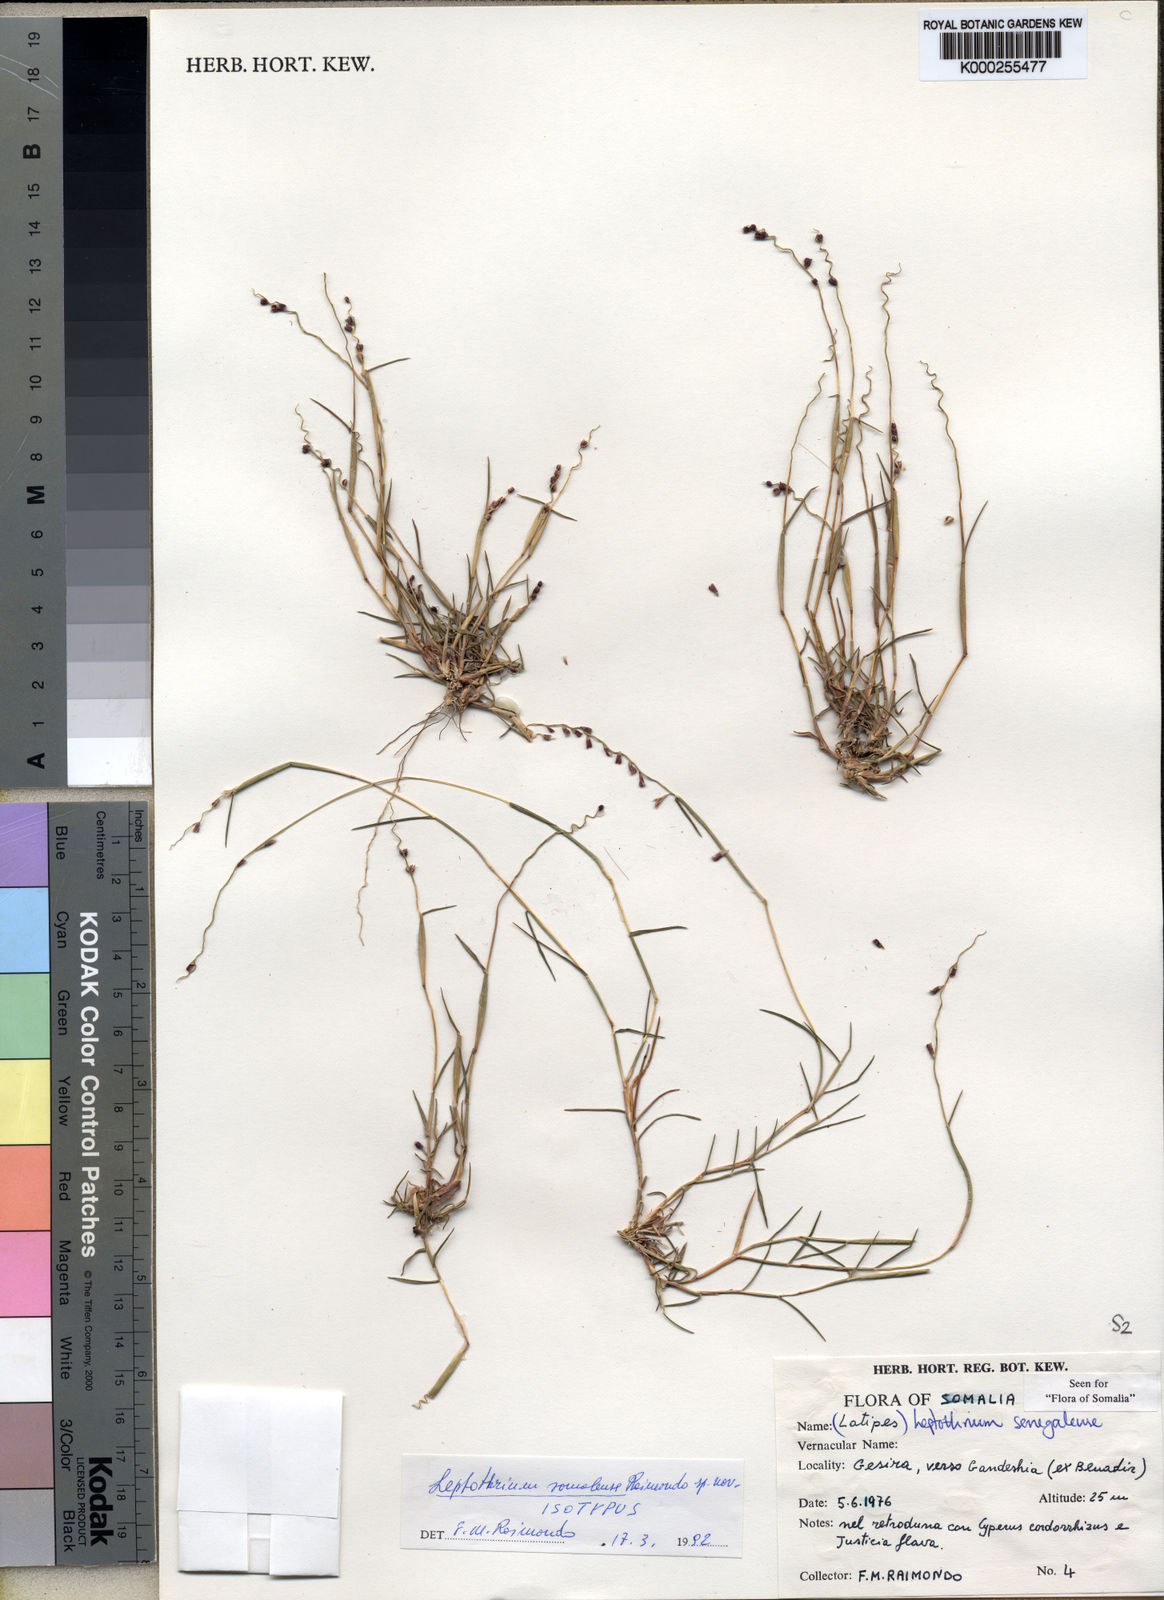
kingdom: Plantae
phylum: Tracheophyta
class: Liliopsida
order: Poales
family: Poaceae
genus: Leptothrium
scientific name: Leptothrium senegalense
